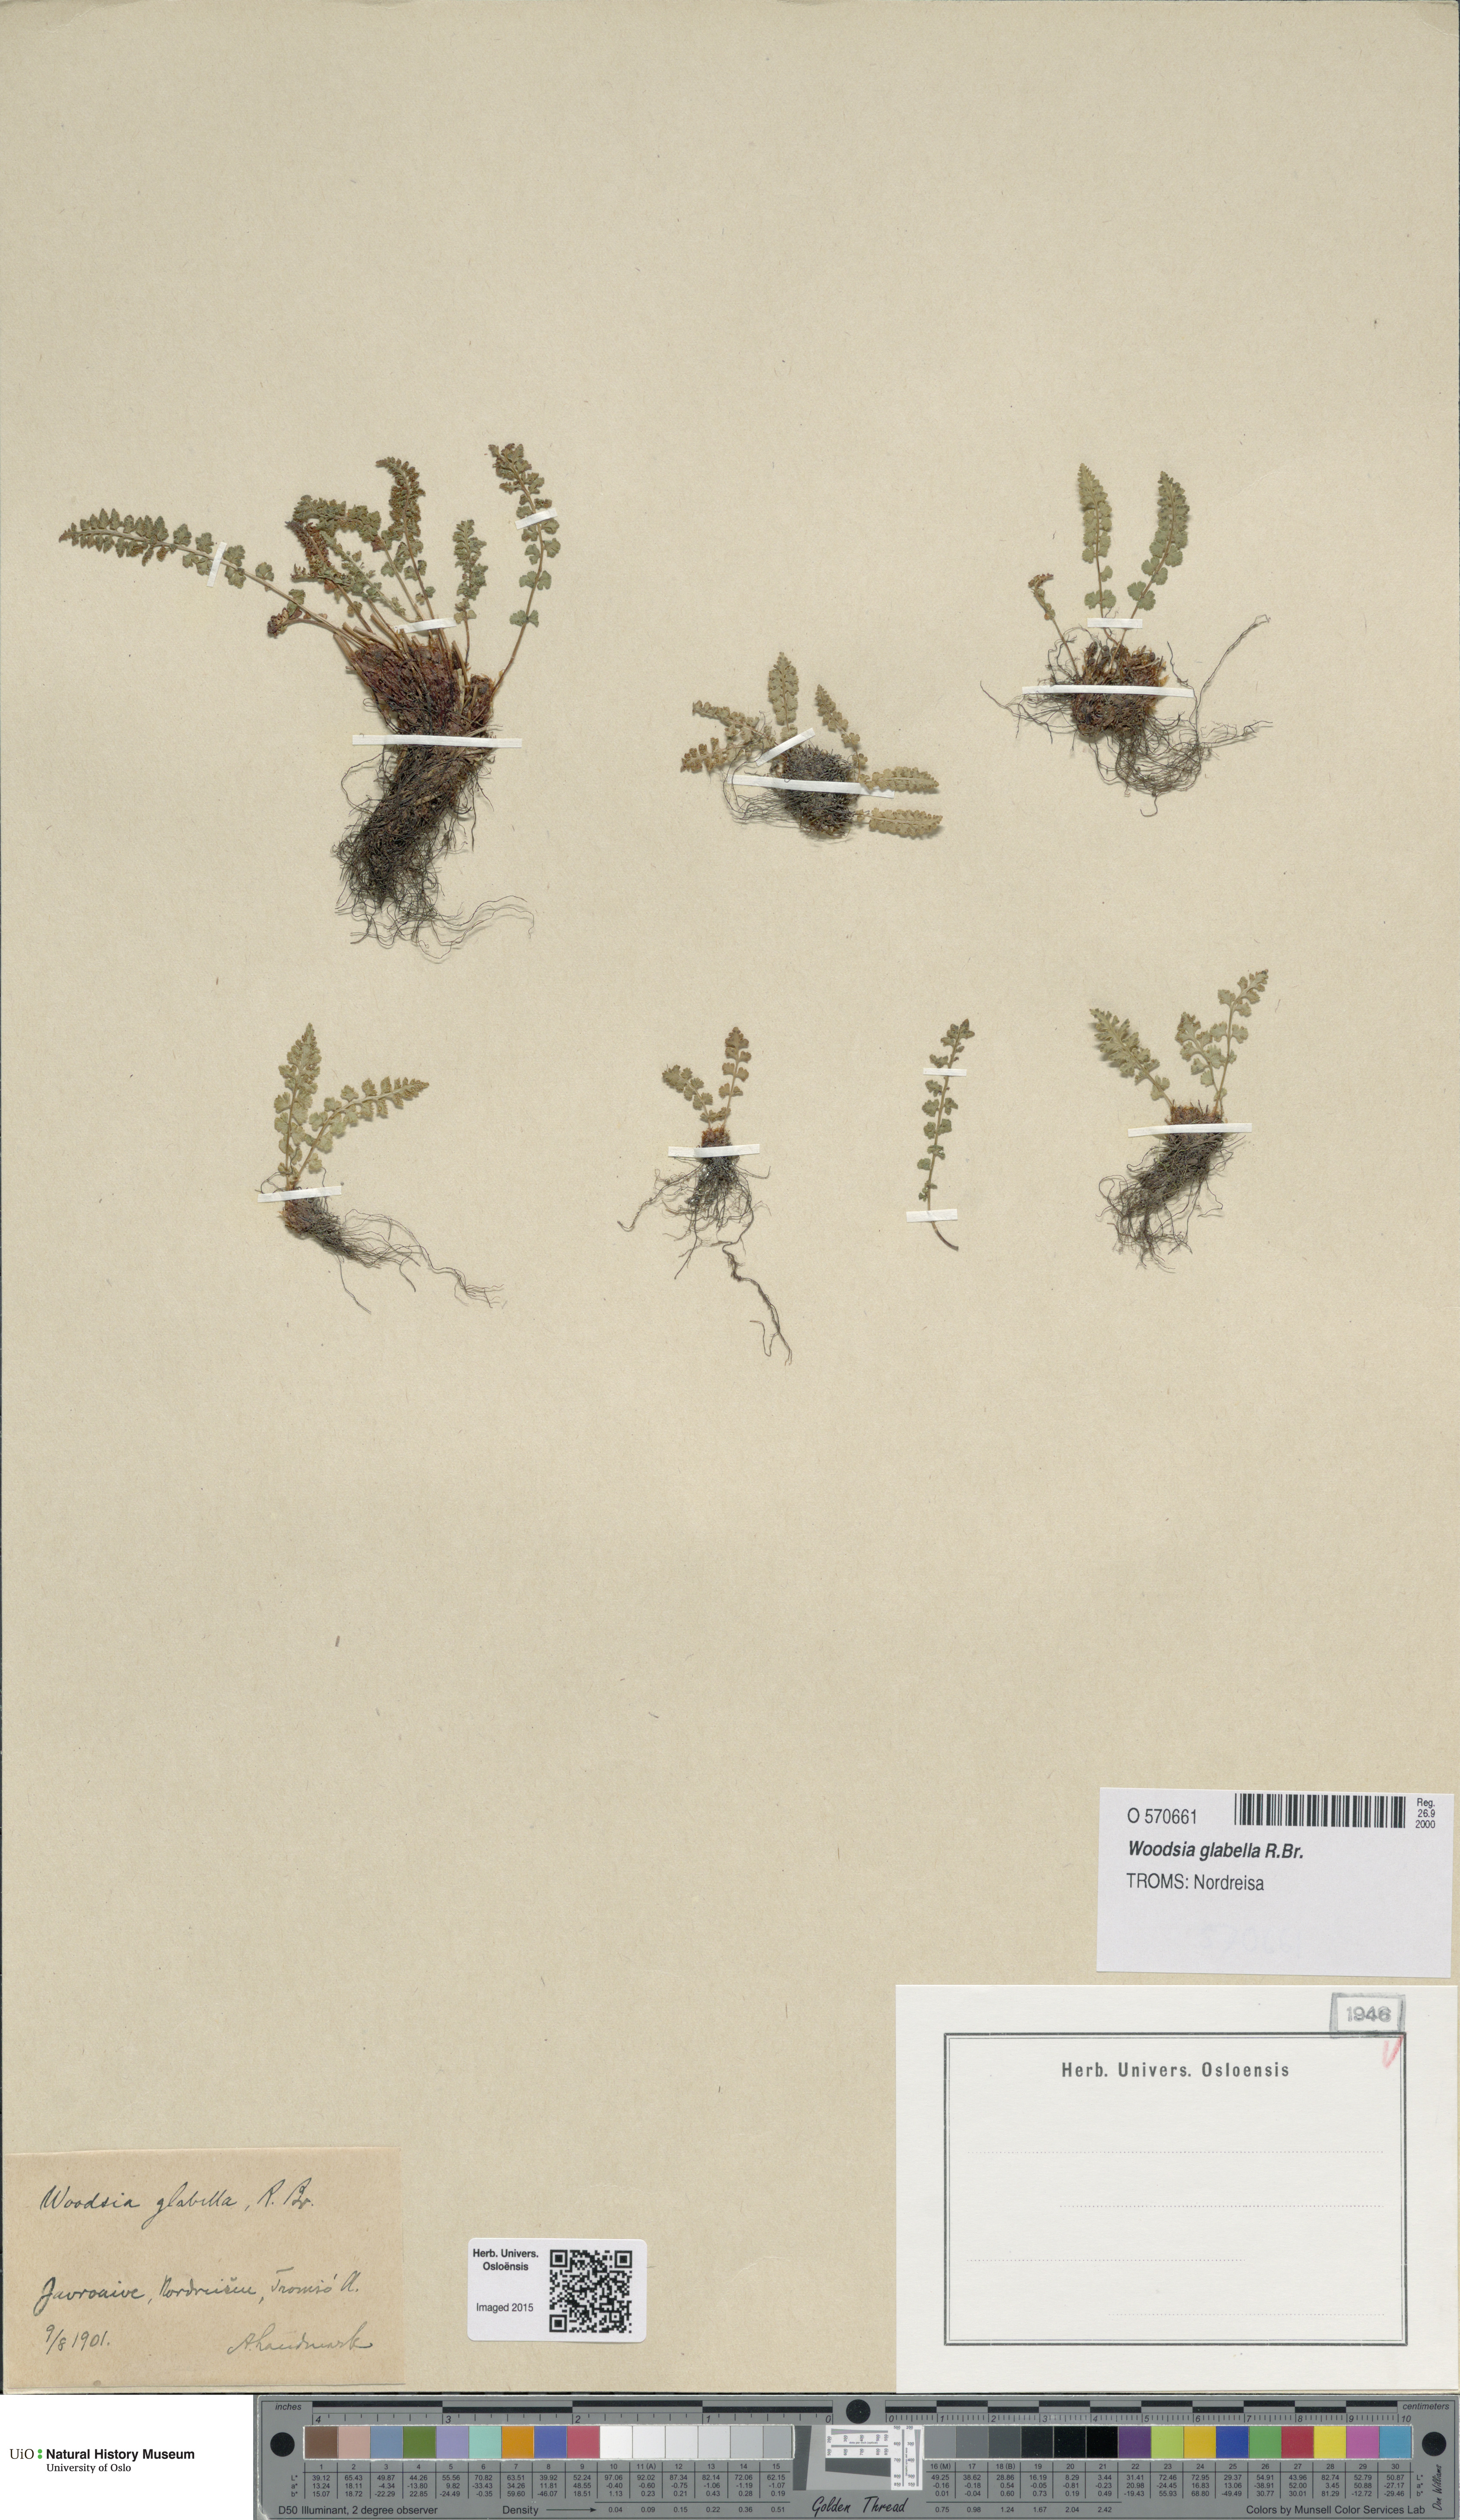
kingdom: Plantae
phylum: Tracheophyta
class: Polypodiopsida
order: Polypodiales
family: Woodsiaceae
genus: Woodsia
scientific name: Woodsia glabella
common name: Smooth woodsia
